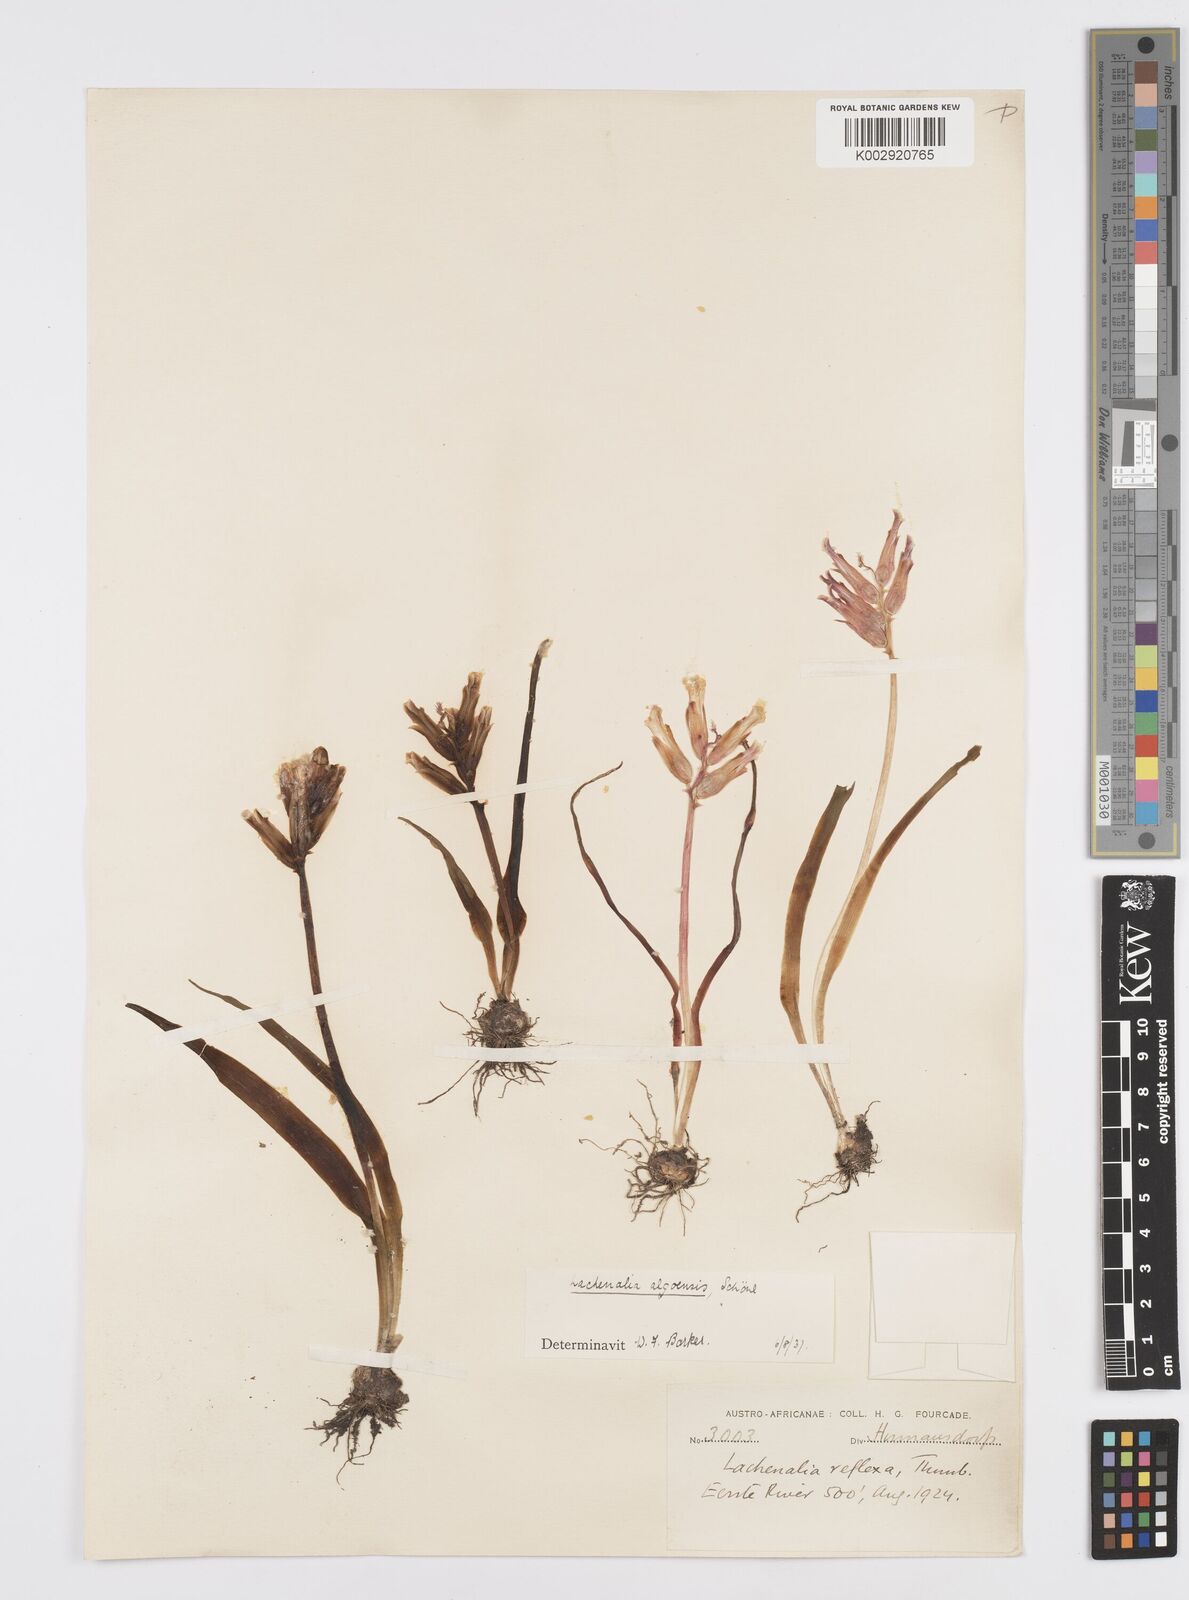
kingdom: Plantae
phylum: Tracheophyta
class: Liliopsida
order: Asparagales
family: Asparagaceae
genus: Lachenalia
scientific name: Lachenalia algoensis
